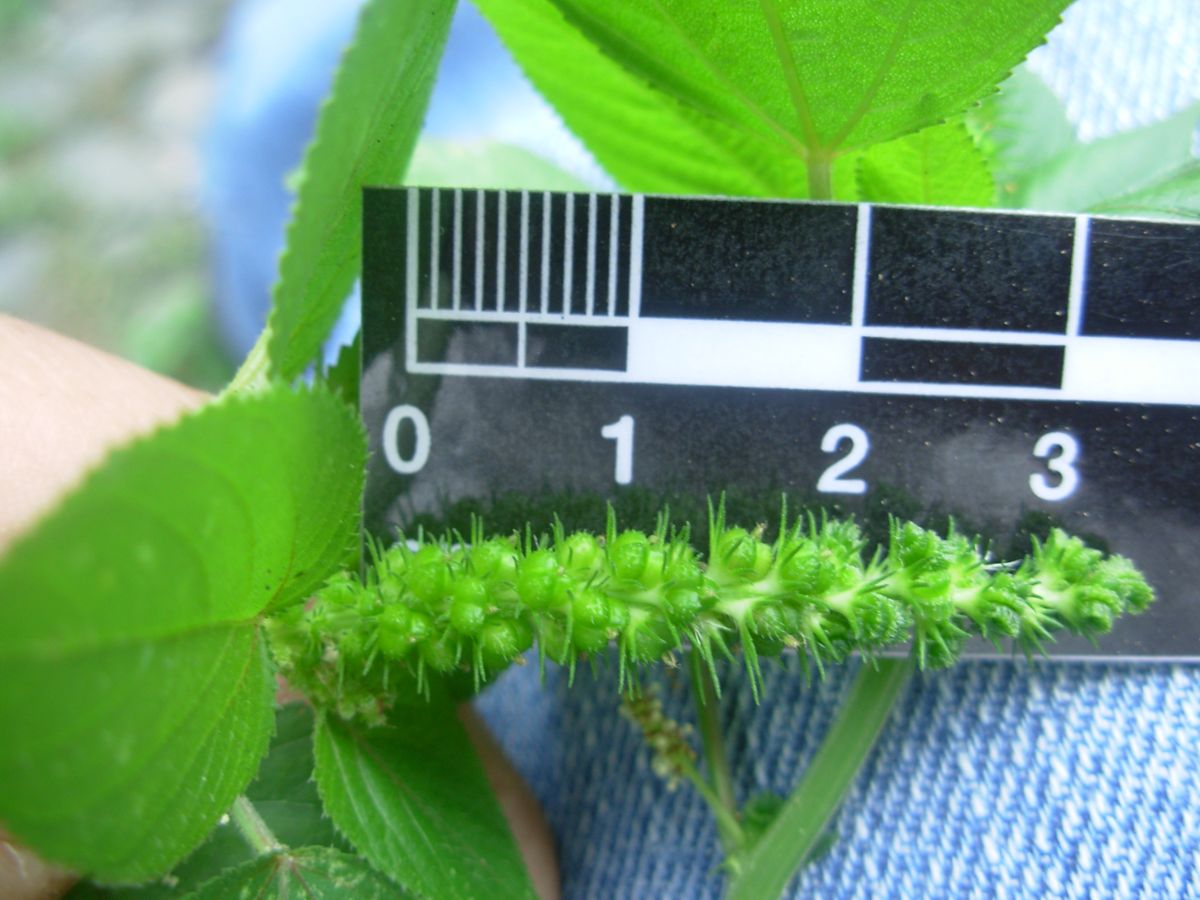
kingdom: Plantae
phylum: Tracheophyta
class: Magnoliopsida
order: Malpighiales
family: Euphorbiaceae
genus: Acalypha
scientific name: Acalypha setosa
